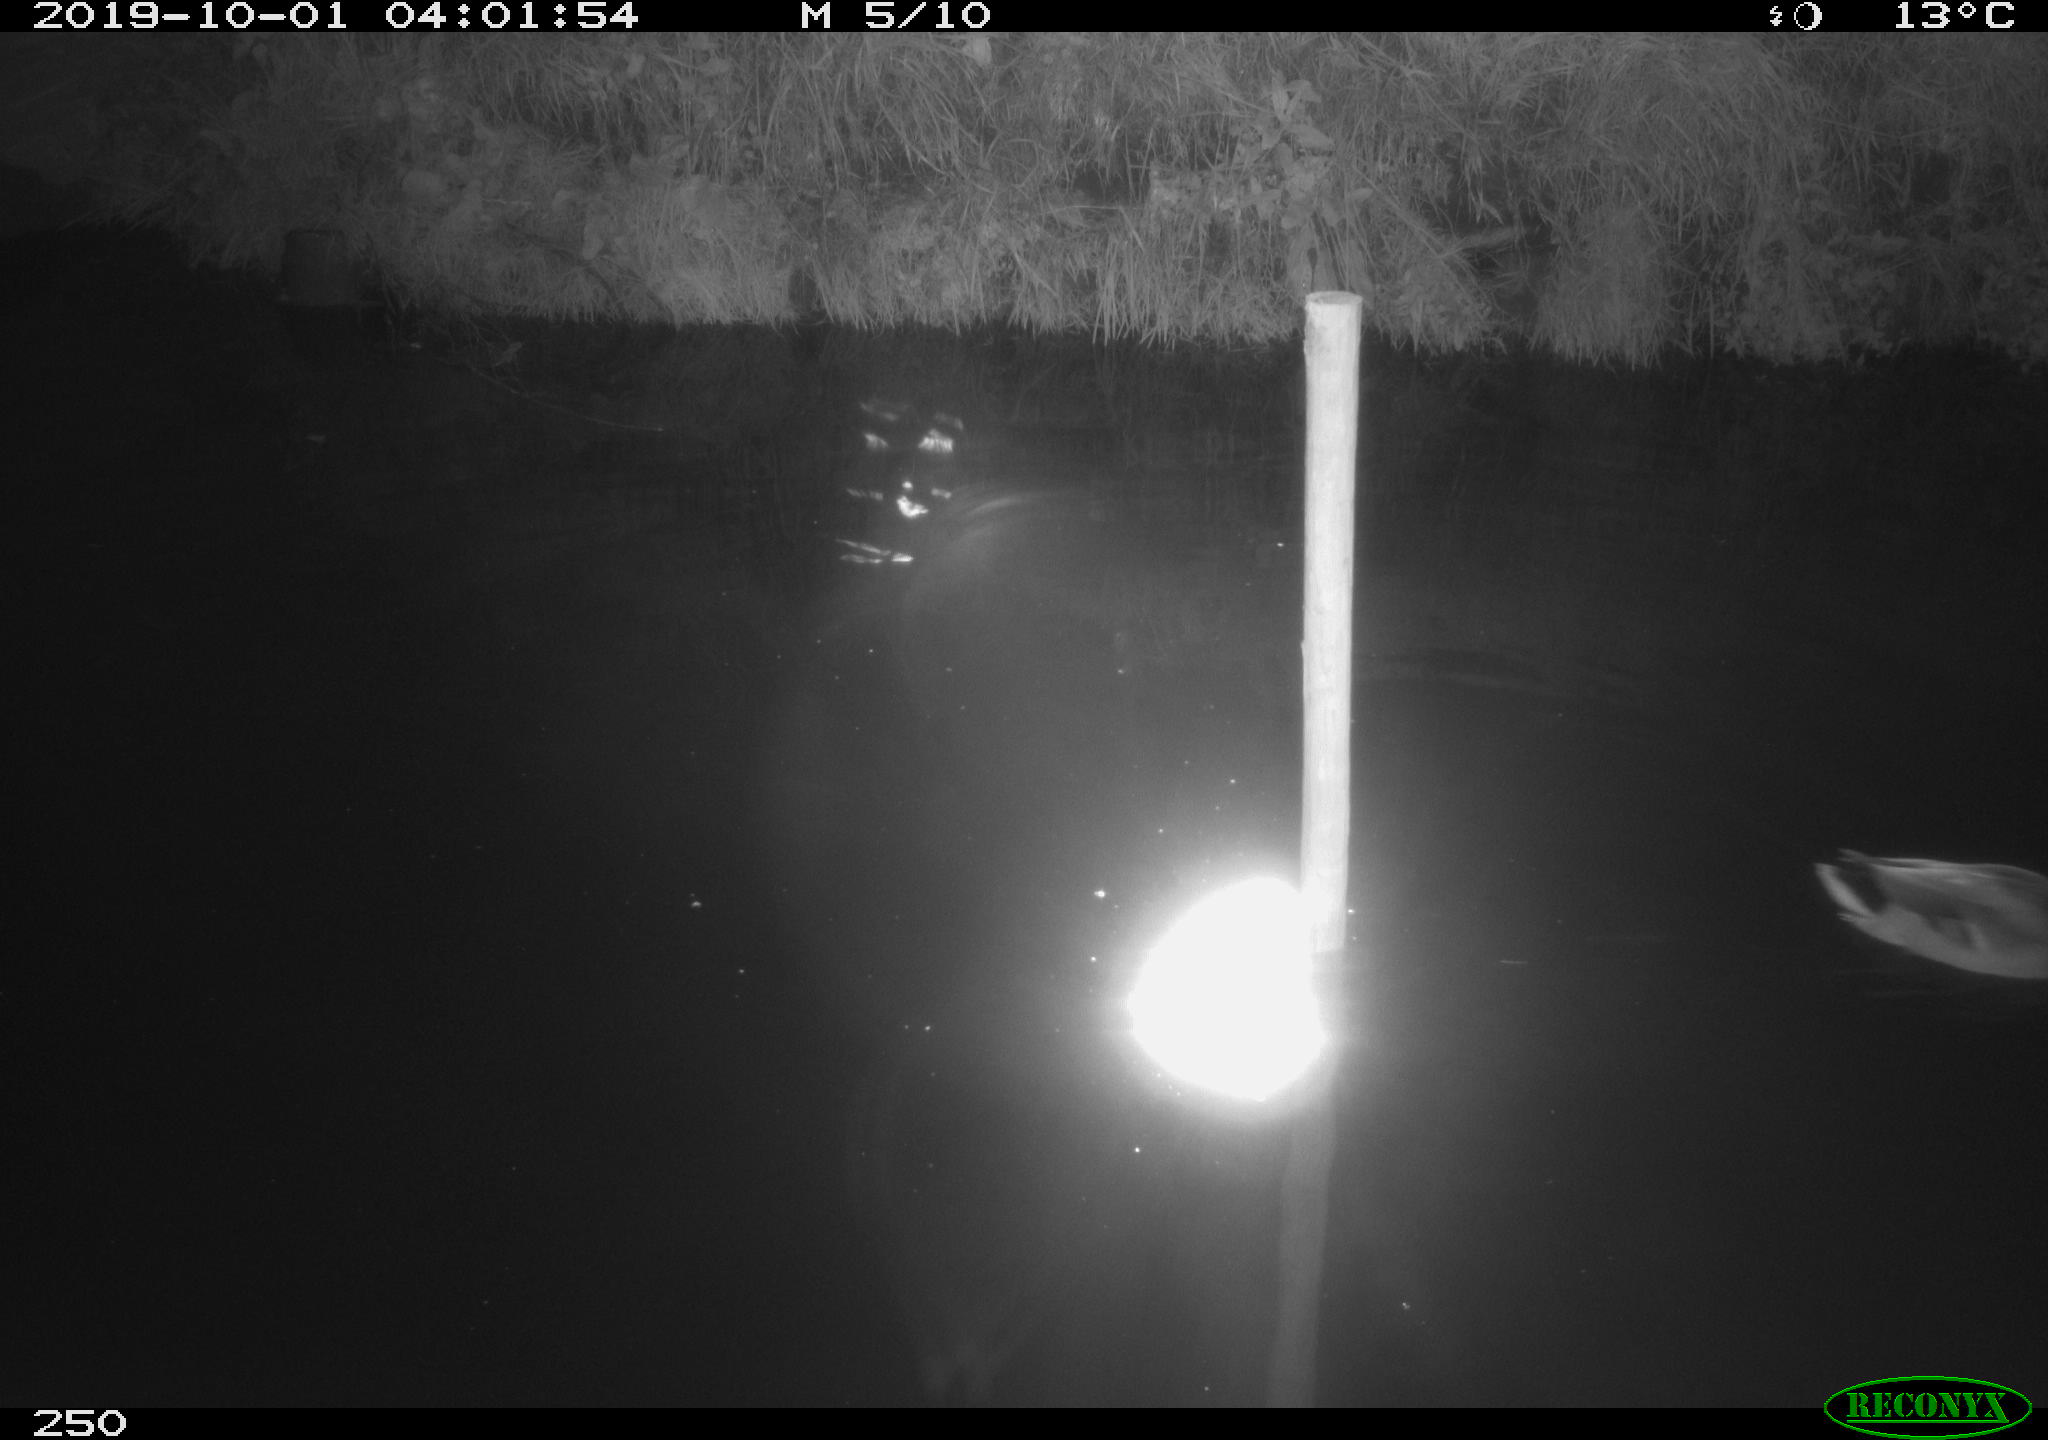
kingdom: Animalia
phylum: Chordata
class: Aves
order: Anseriformes
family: Anatidae
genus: Anas
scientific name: Anas platyrhynchos
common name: Mallard
